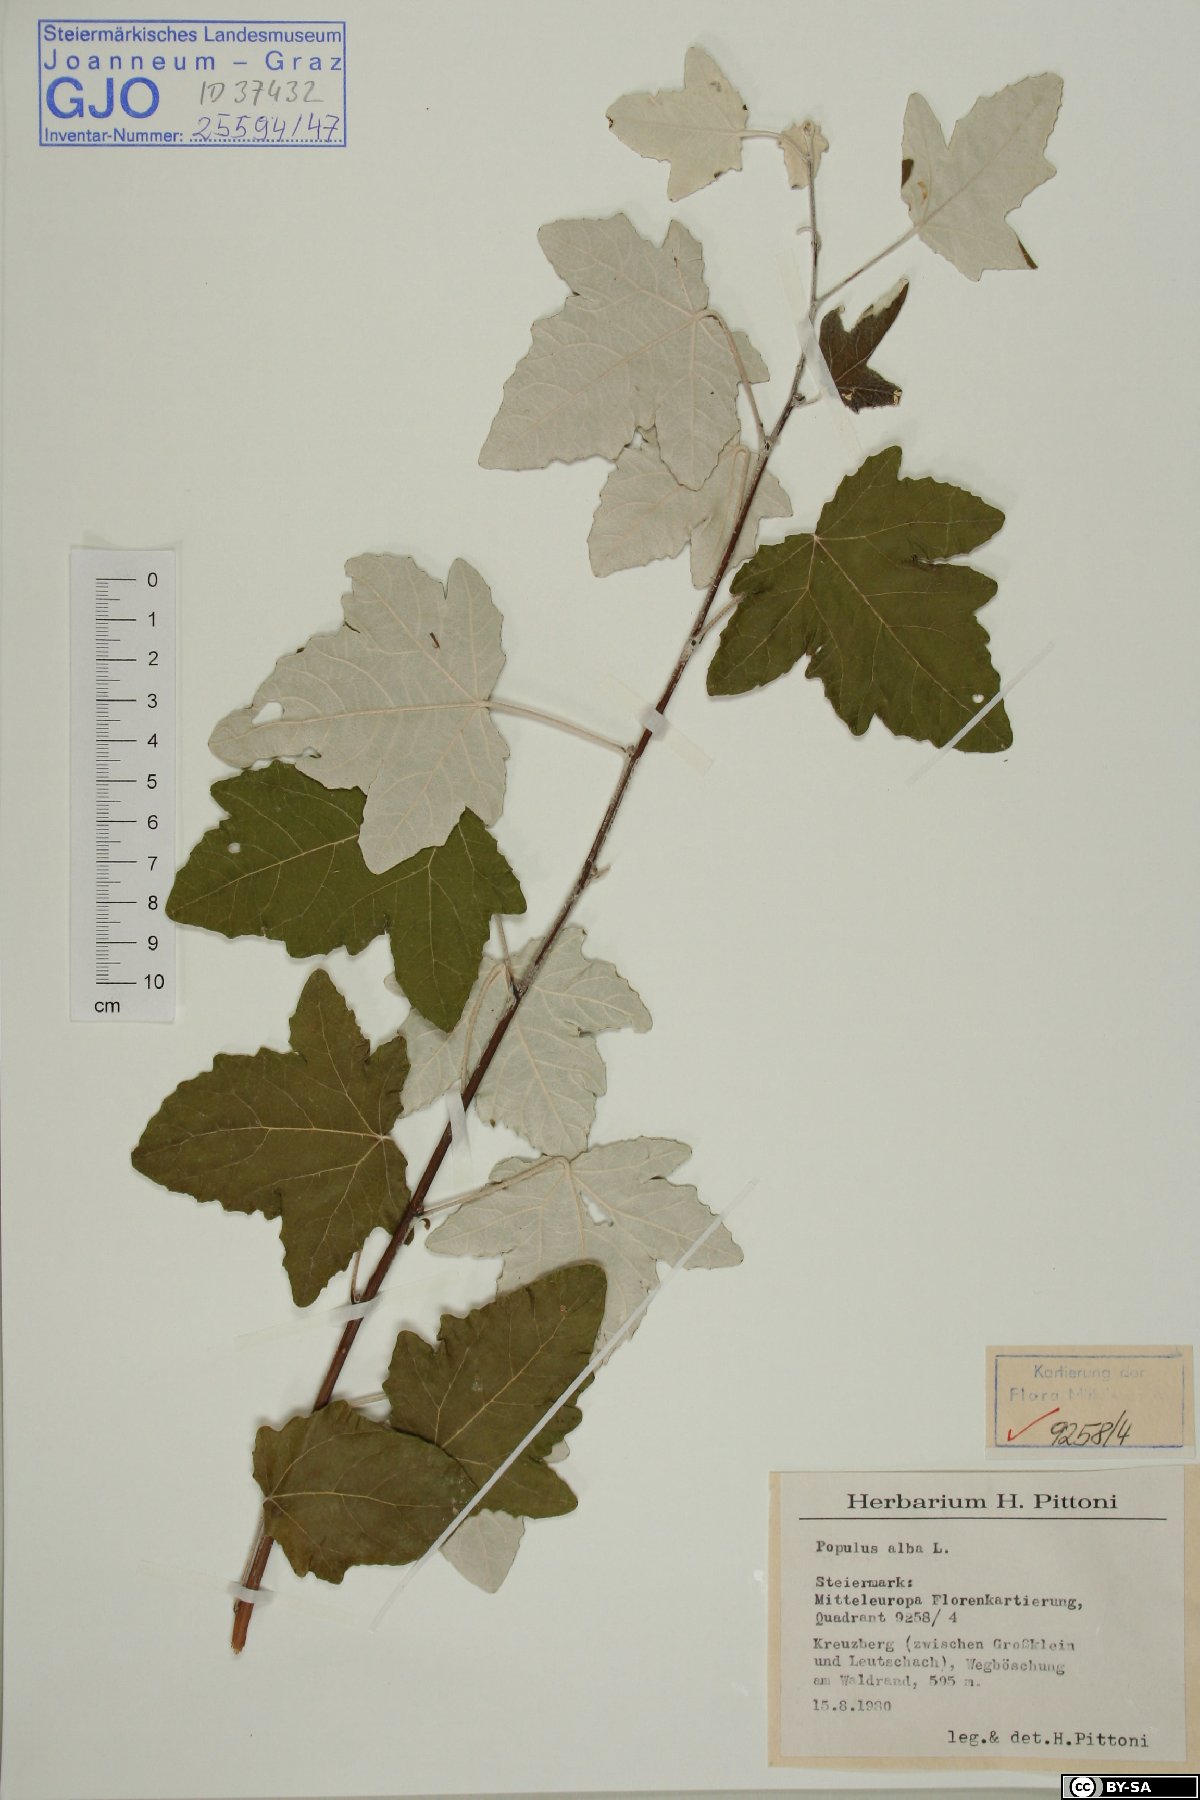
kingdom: Plantae
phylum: Tracheophyta
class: Magnoliopsida
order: Malpighiales
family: Salicaceae
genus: Populus
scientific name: Populus alba
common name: White poplar
